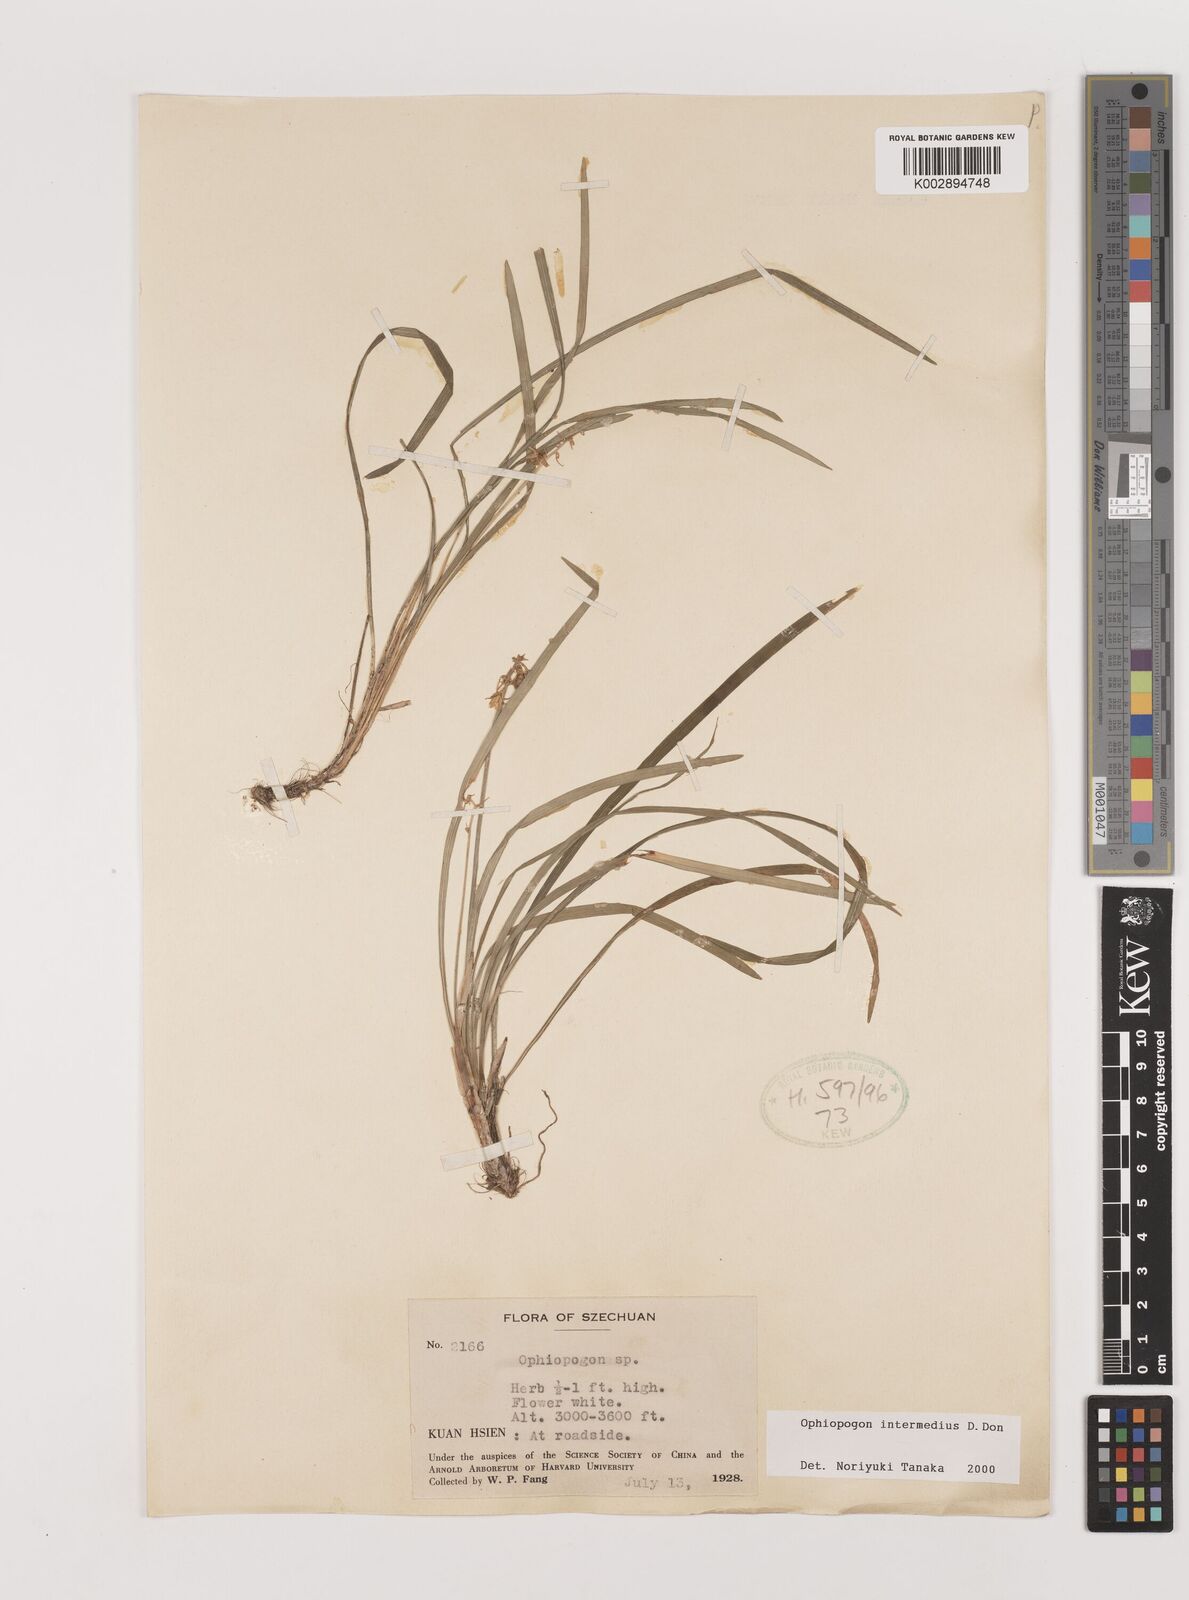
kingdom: Plantae
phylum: Tracheophyta
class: Liliopsida
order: Asparagales
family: Asparagaceae
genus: Ophiopogon
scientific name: Ophiopogon intermedius
